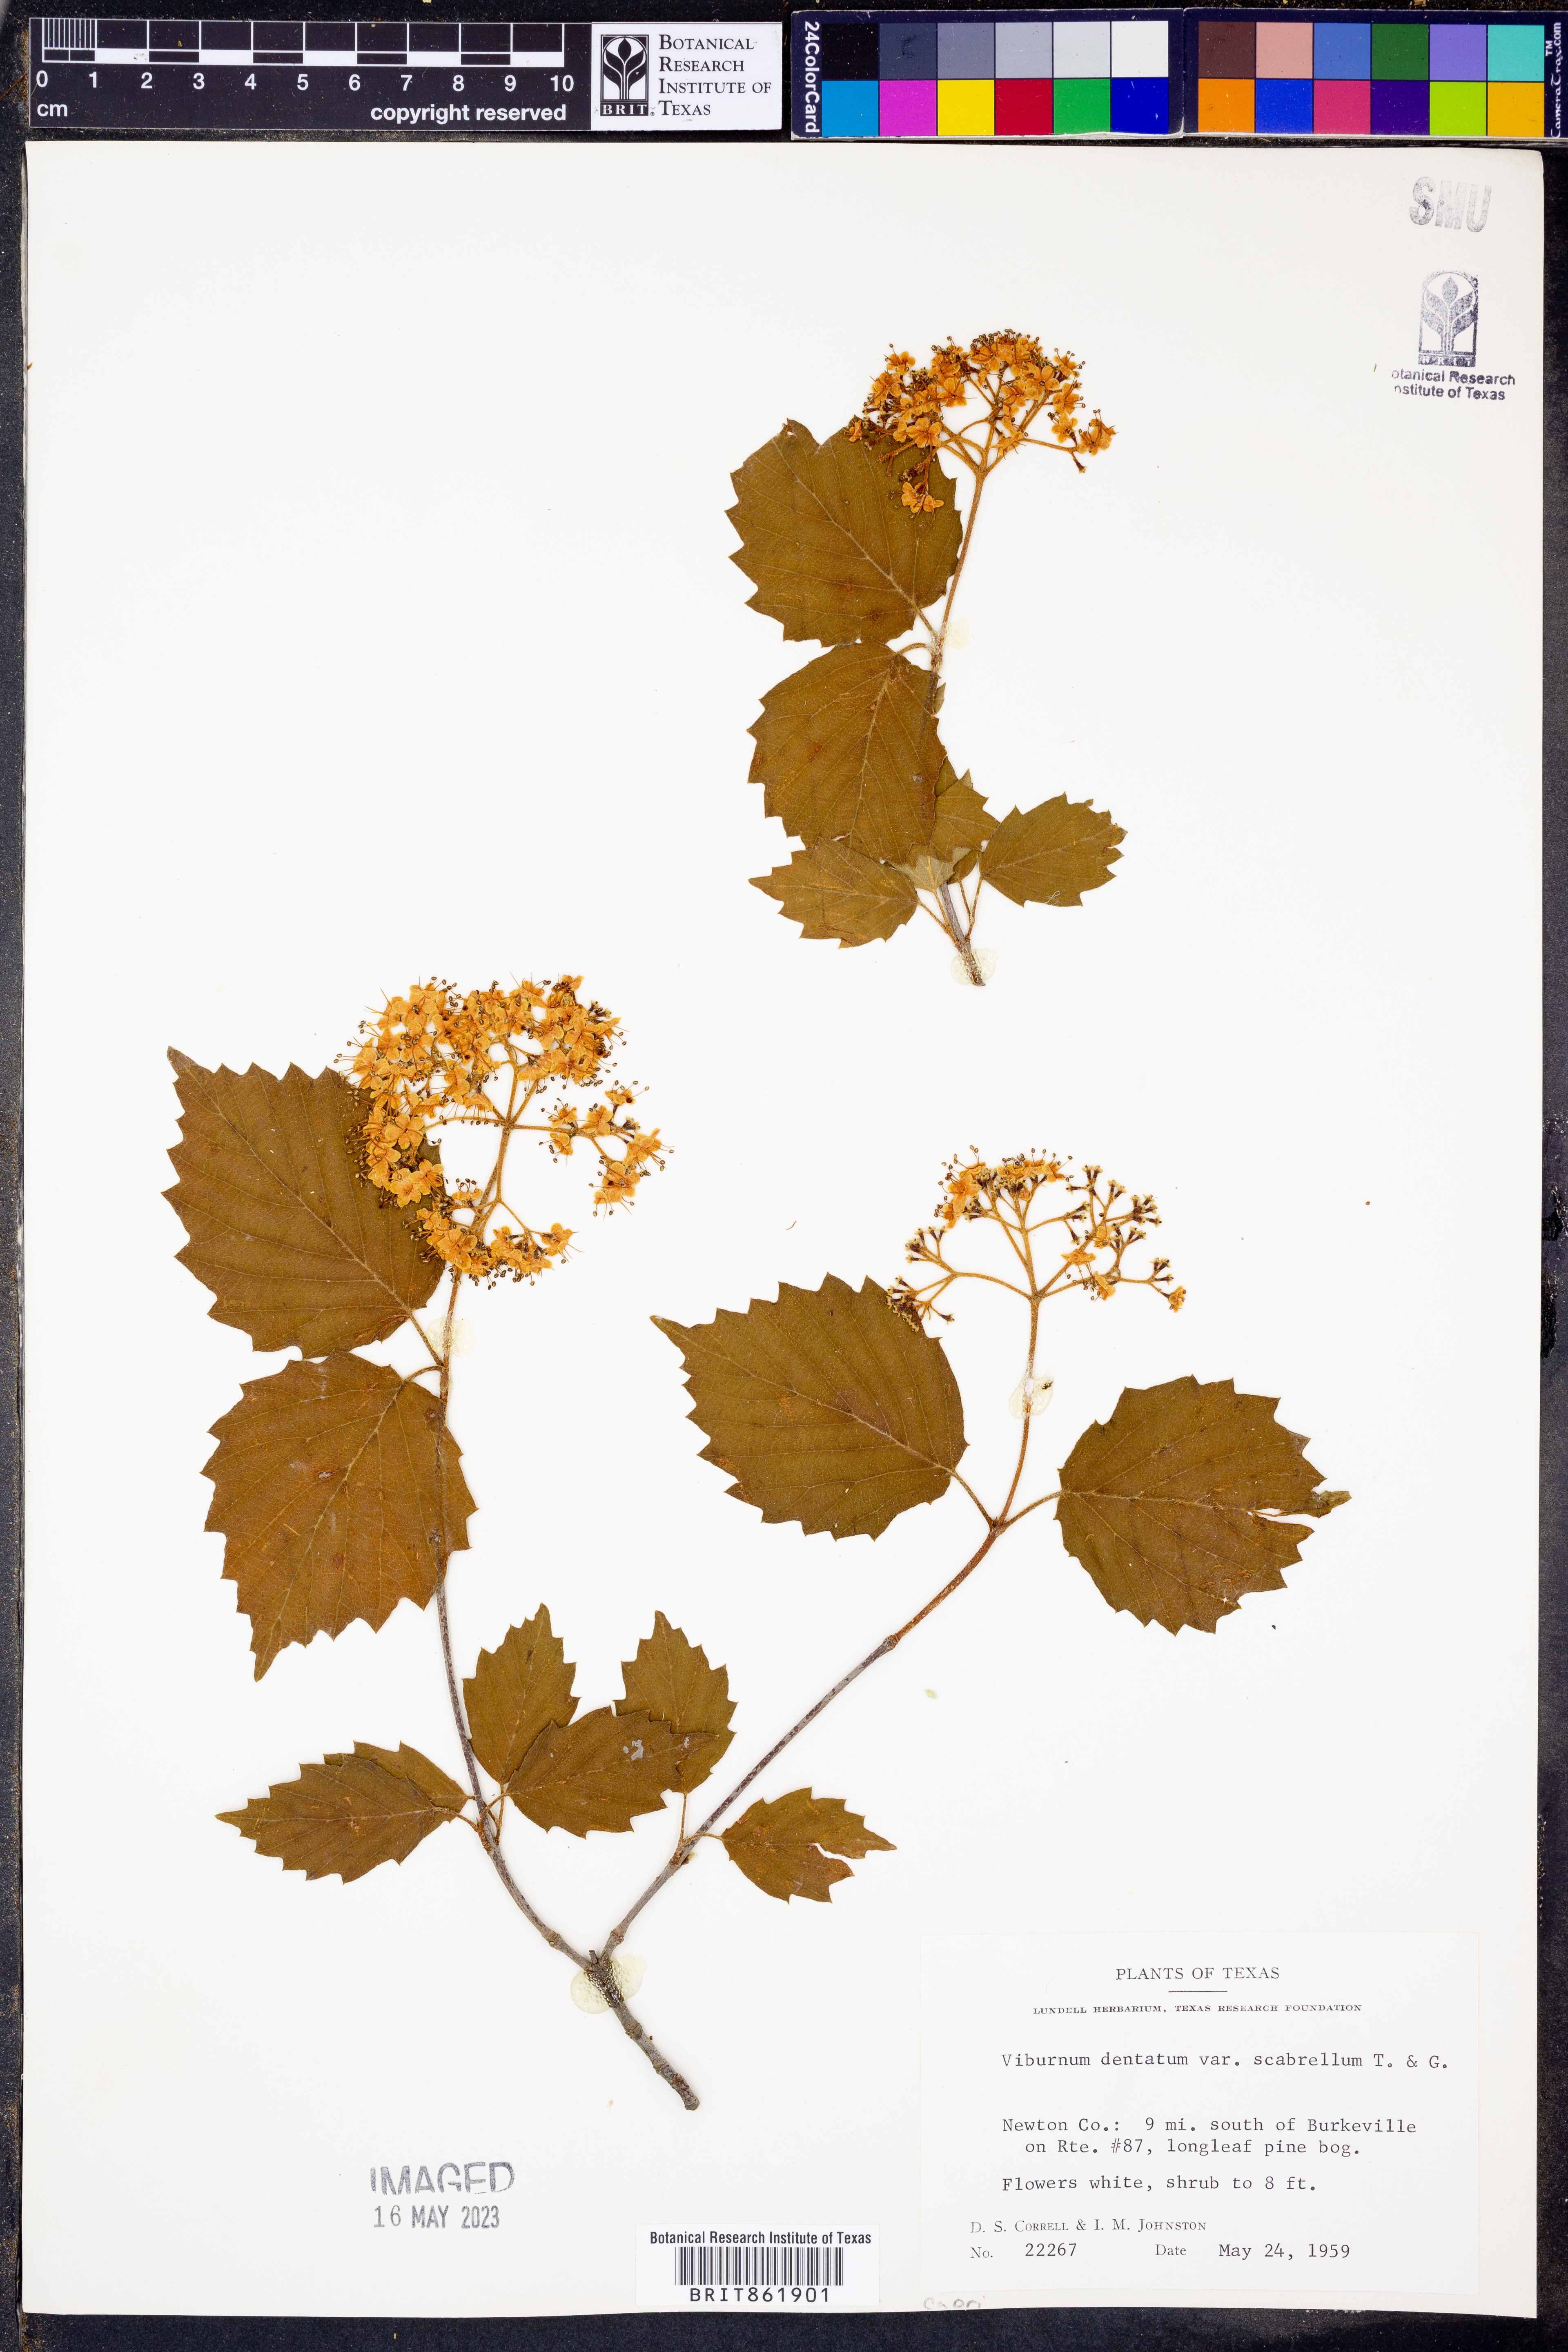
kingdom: Plantae
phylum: Tracheophyta
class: Magnoliopsida
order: Dipsacales
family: Viburnaceae
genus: Viburnum
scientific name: Viburnum scabrellum
